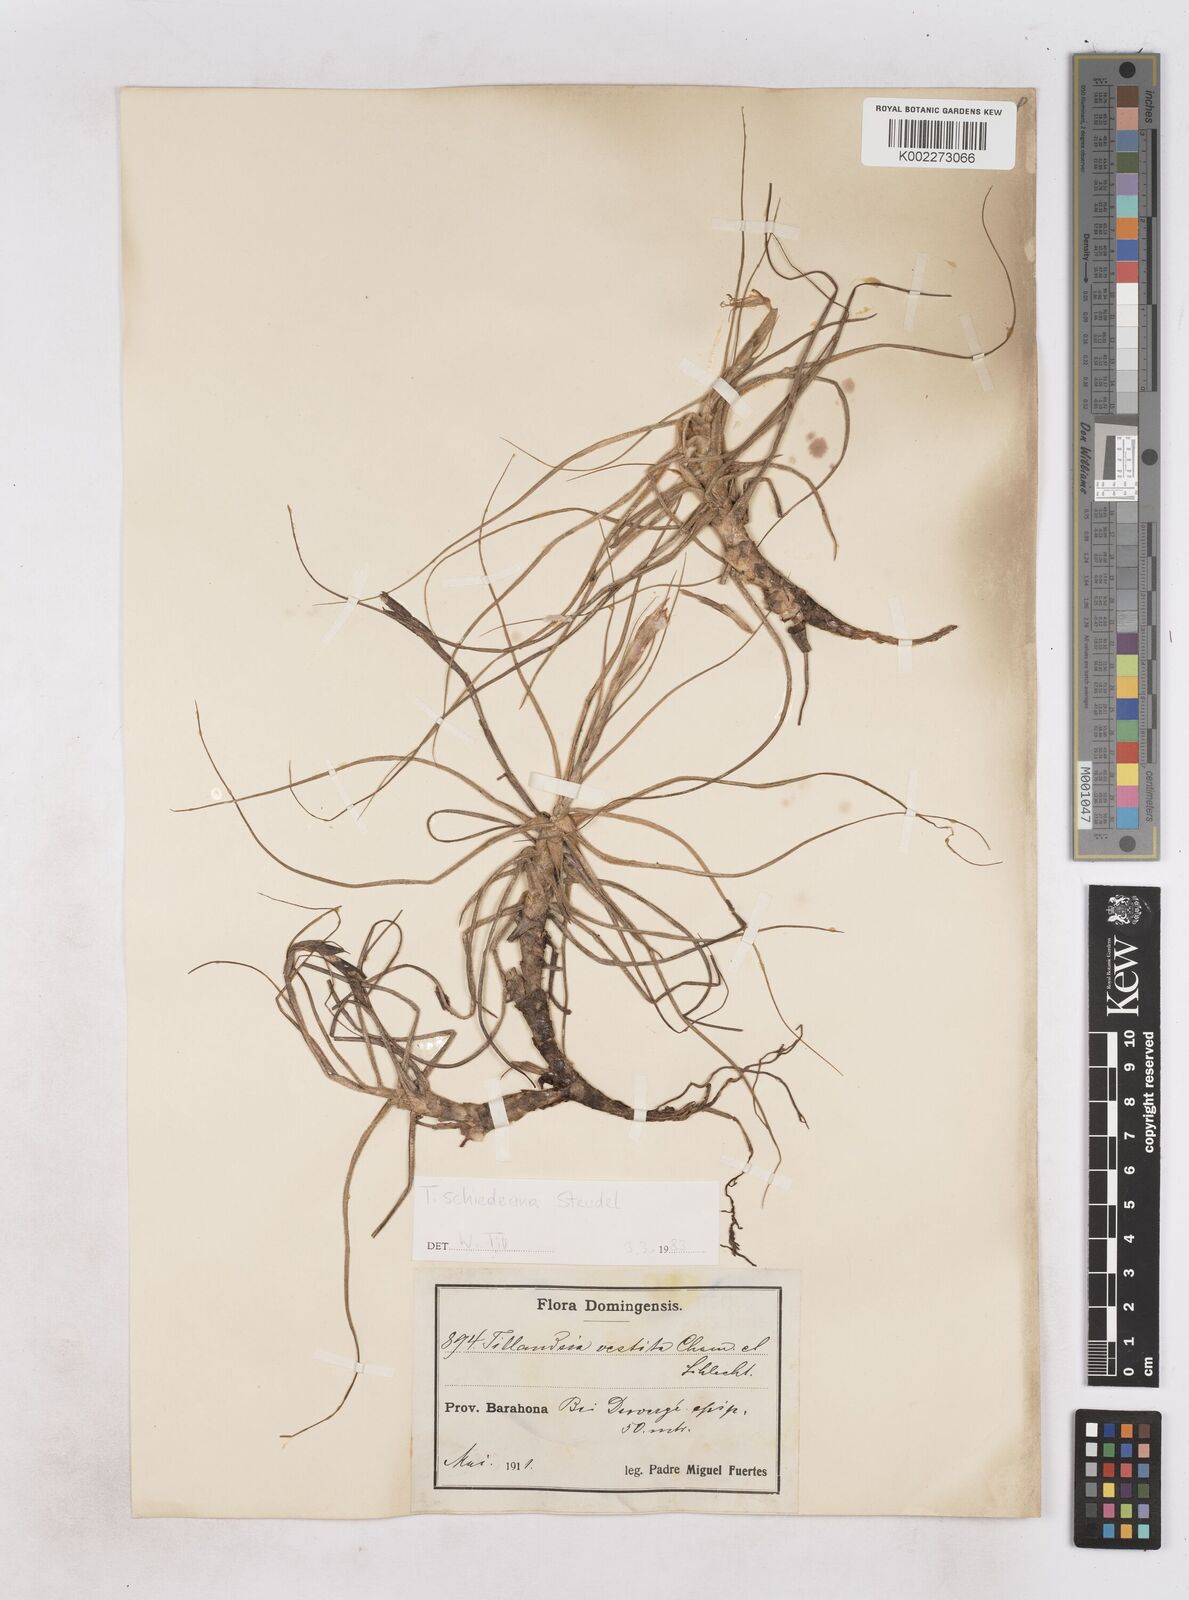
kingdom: Plantae
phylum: Tracheophyta
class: Liliopsida
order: Poales
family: Bromeliaceae
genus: Tillandsia
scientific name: Tillandsia schiedeana
